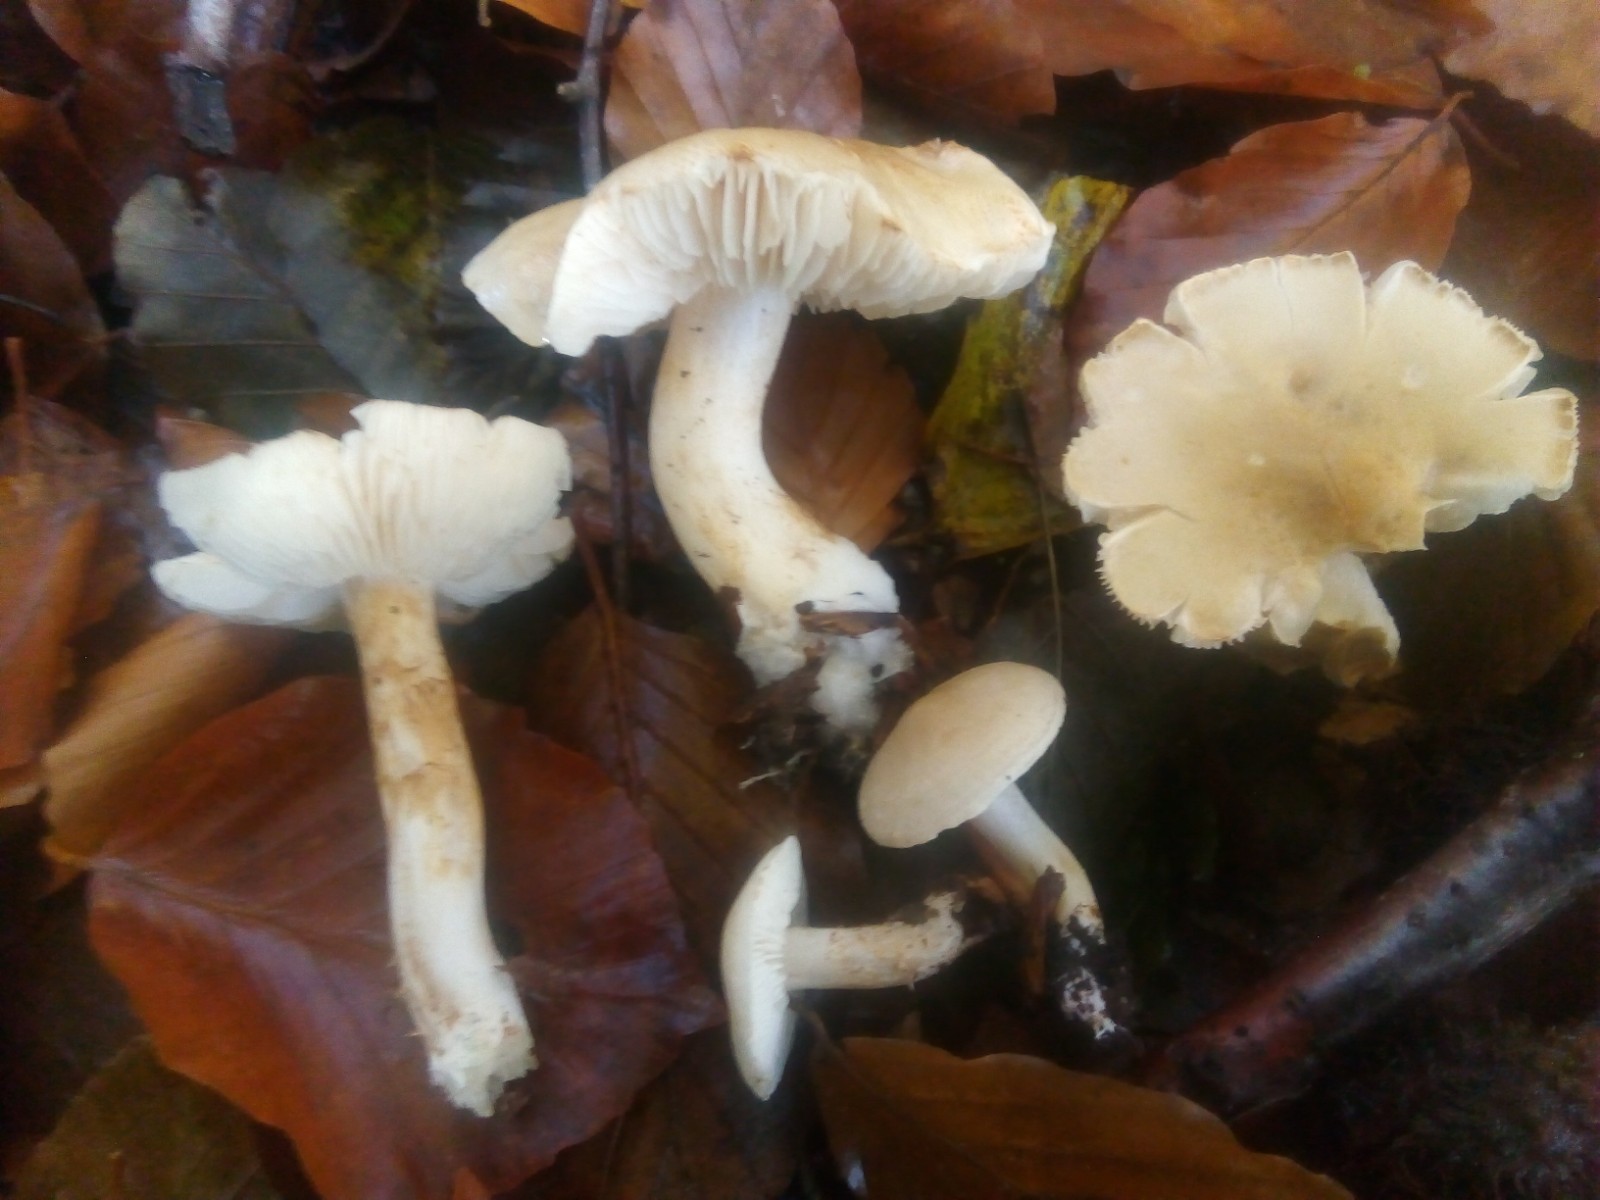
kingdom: Fungi
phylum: Basidiomycota
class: Agaricomycetes
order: Agaricales
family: Tricholomataceae
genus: Tricholoma
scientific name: Tricholoma lascivum
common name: stinkende ridderhat
